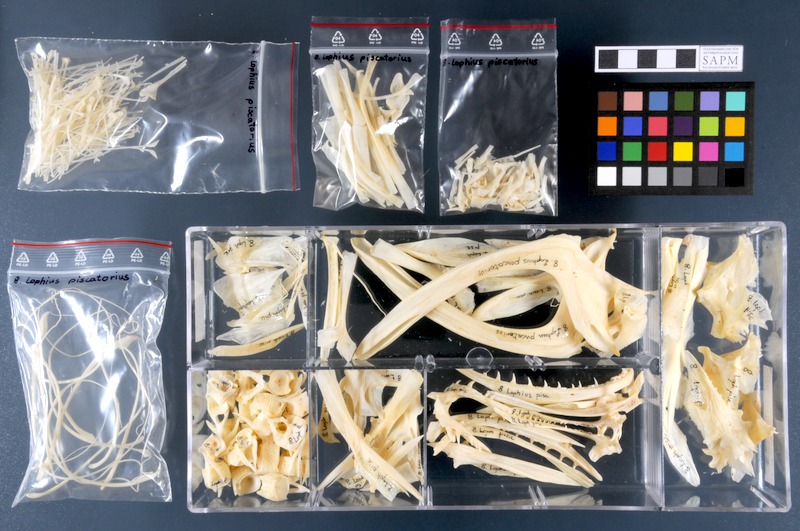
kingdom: Animalia
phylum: Chordata
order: Lophiiformes
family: Lophiidae
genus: Lophius
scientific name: Lophius piscatorius
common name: Angler
